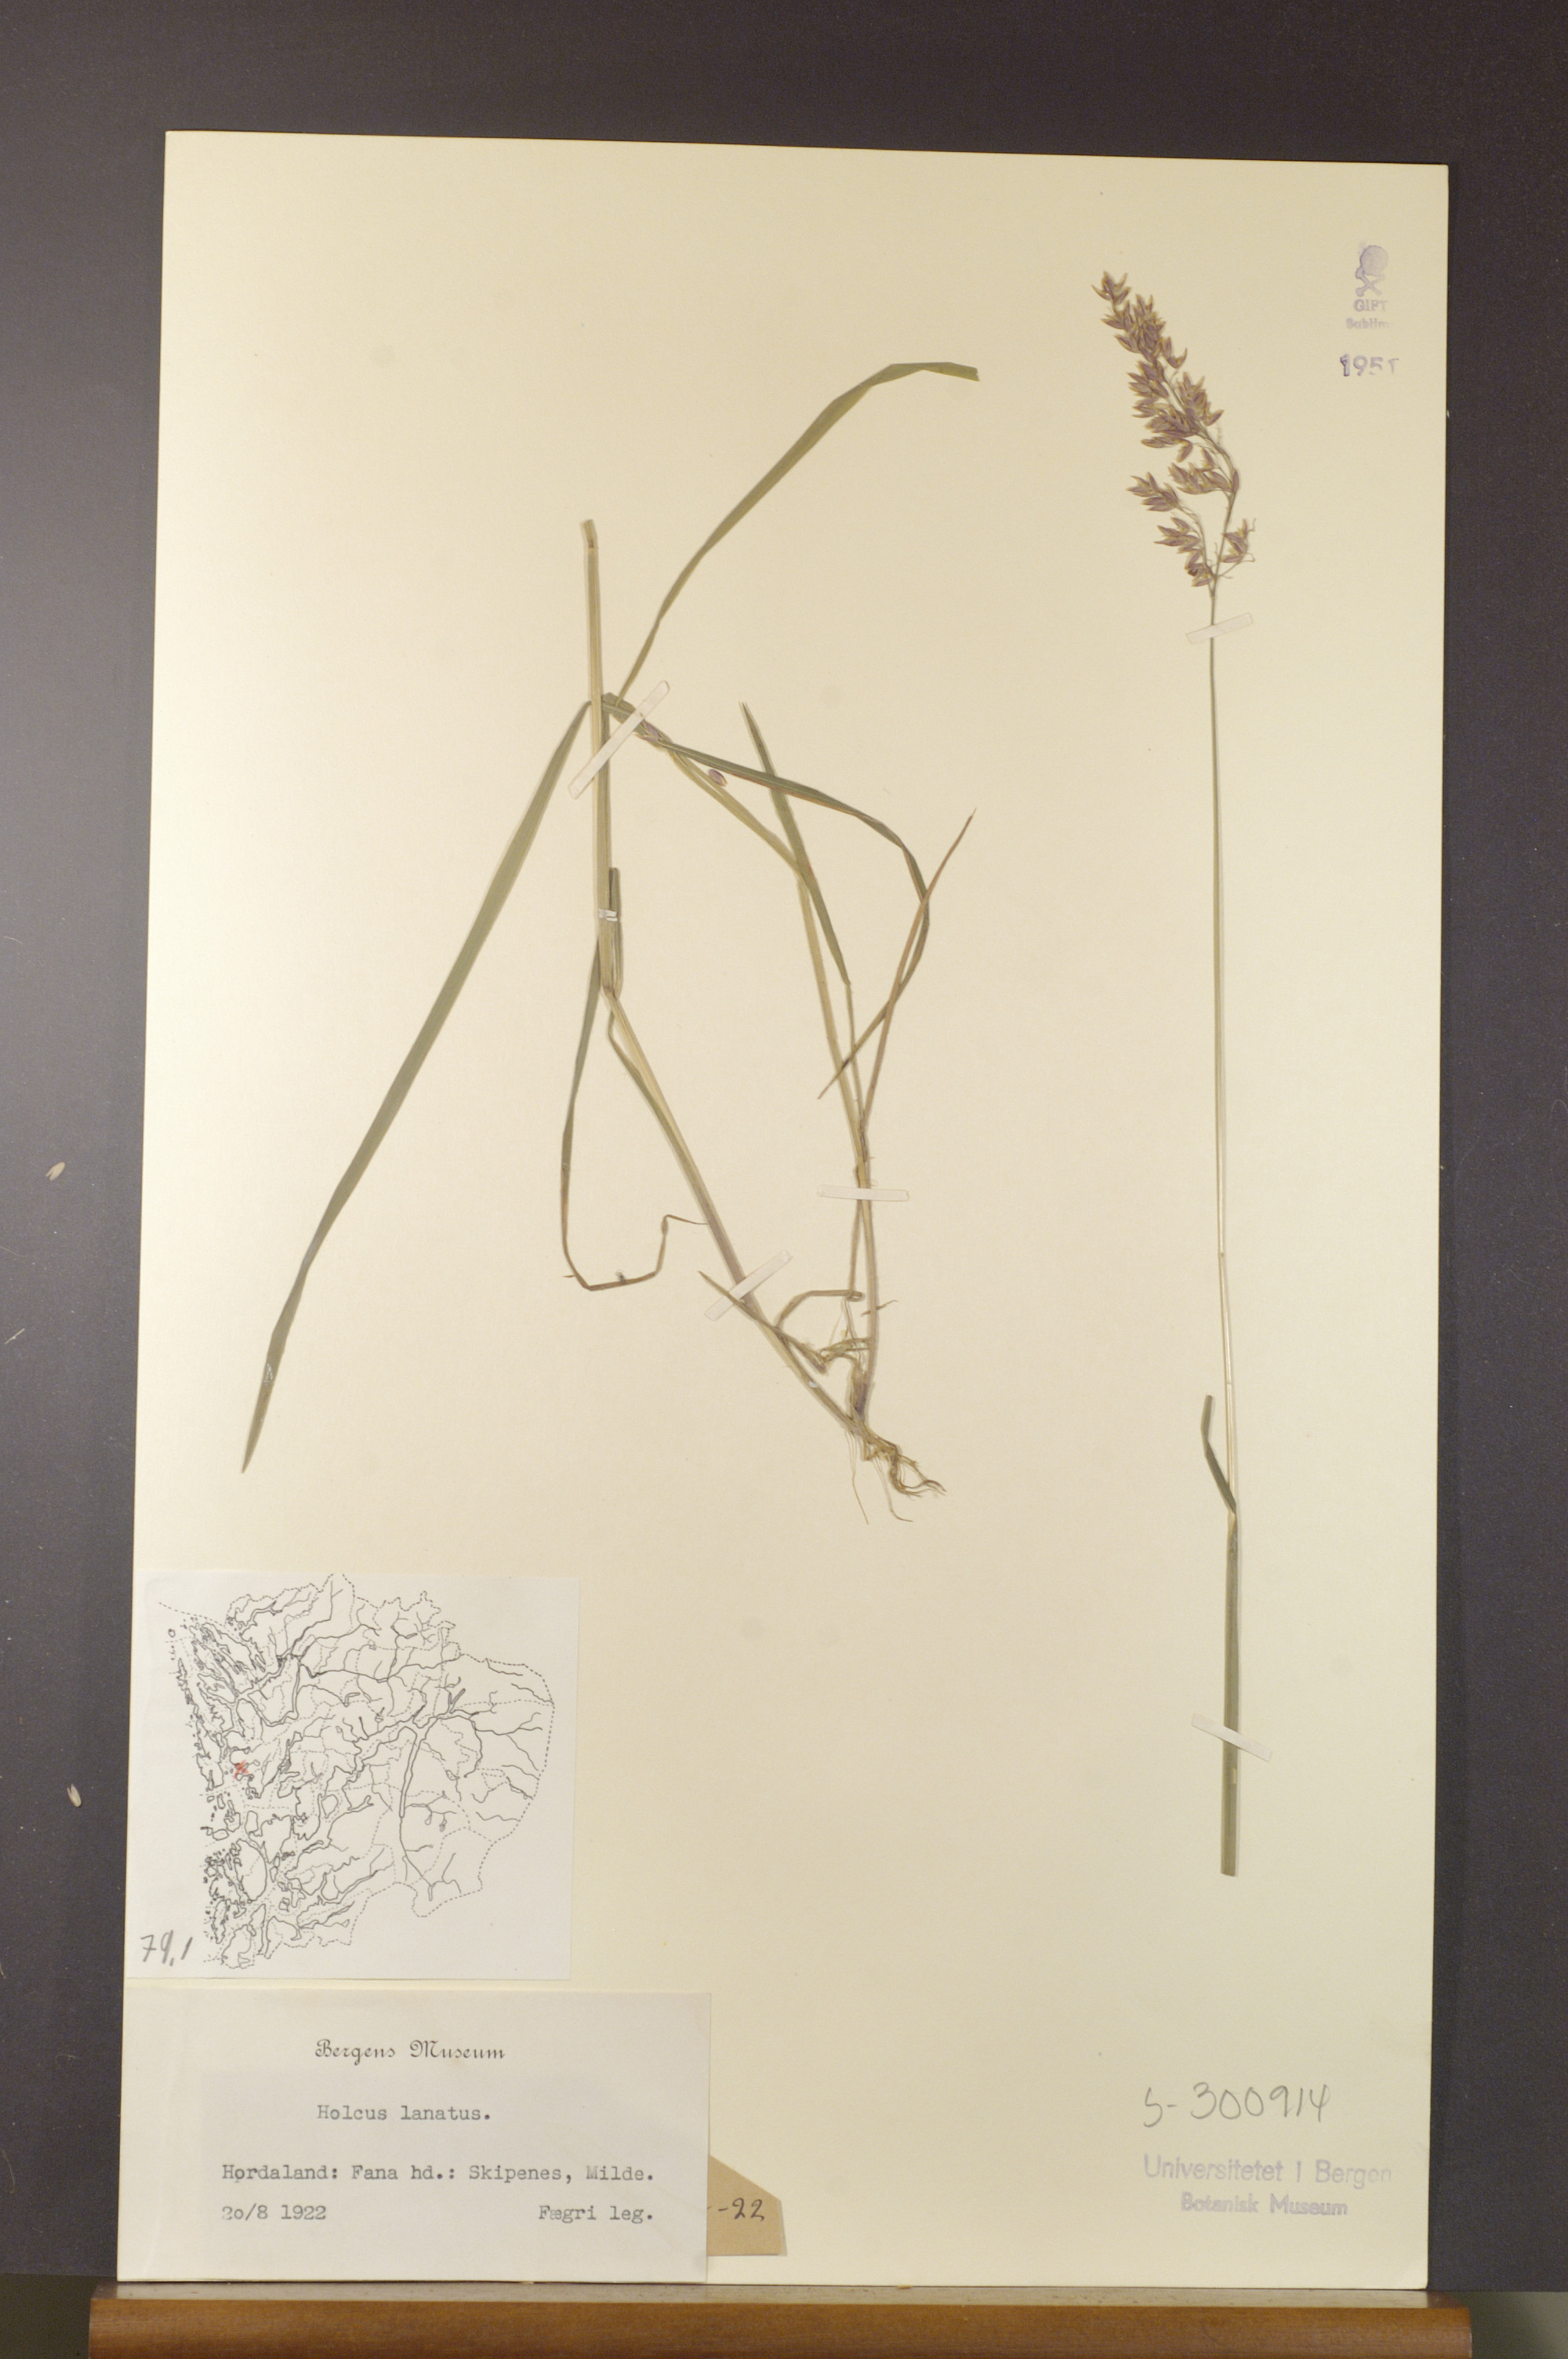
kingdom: Plantae
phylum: Tracheophyta
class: Liliopsida
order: Poales
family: Poaceae
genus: Holcus
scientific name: Holcus lanatus
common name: Yorkshire-fog
